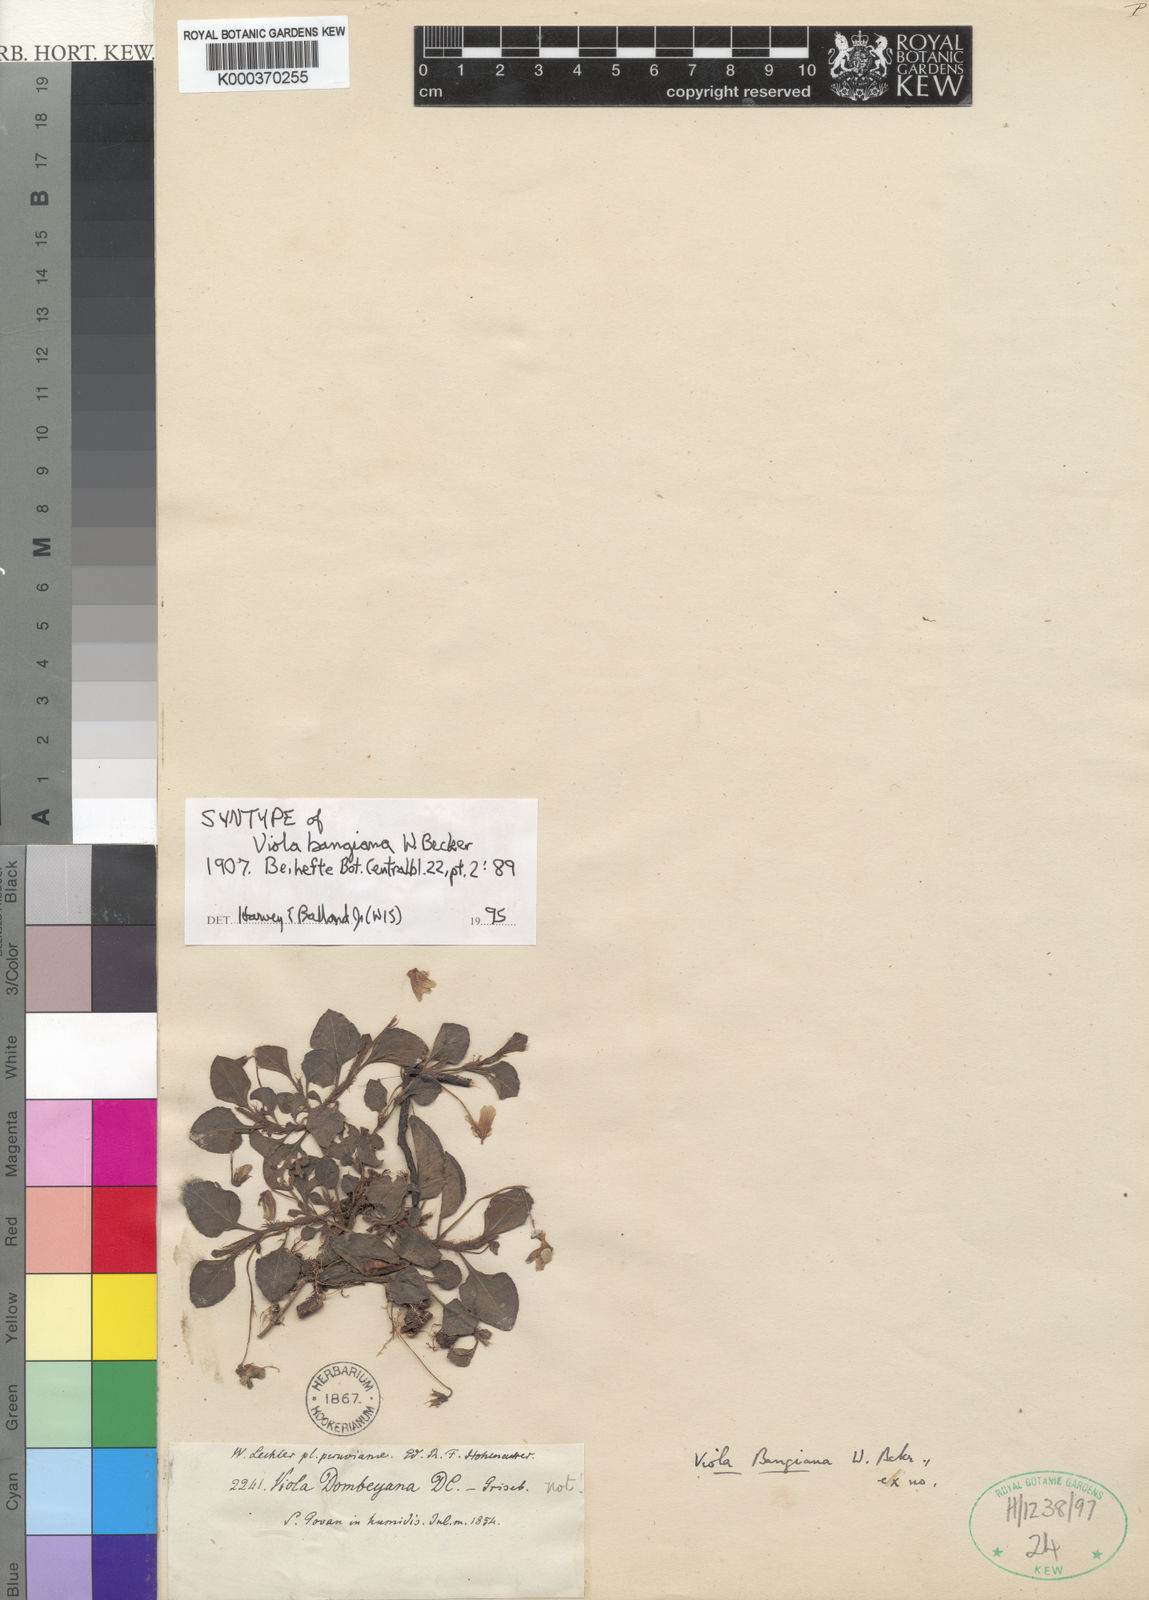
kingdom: Plantae
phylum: Tracheophyta
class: Magnoliopsida
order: Malpighiales
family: Violaceae
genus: Viola
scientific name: Viola boliviana
